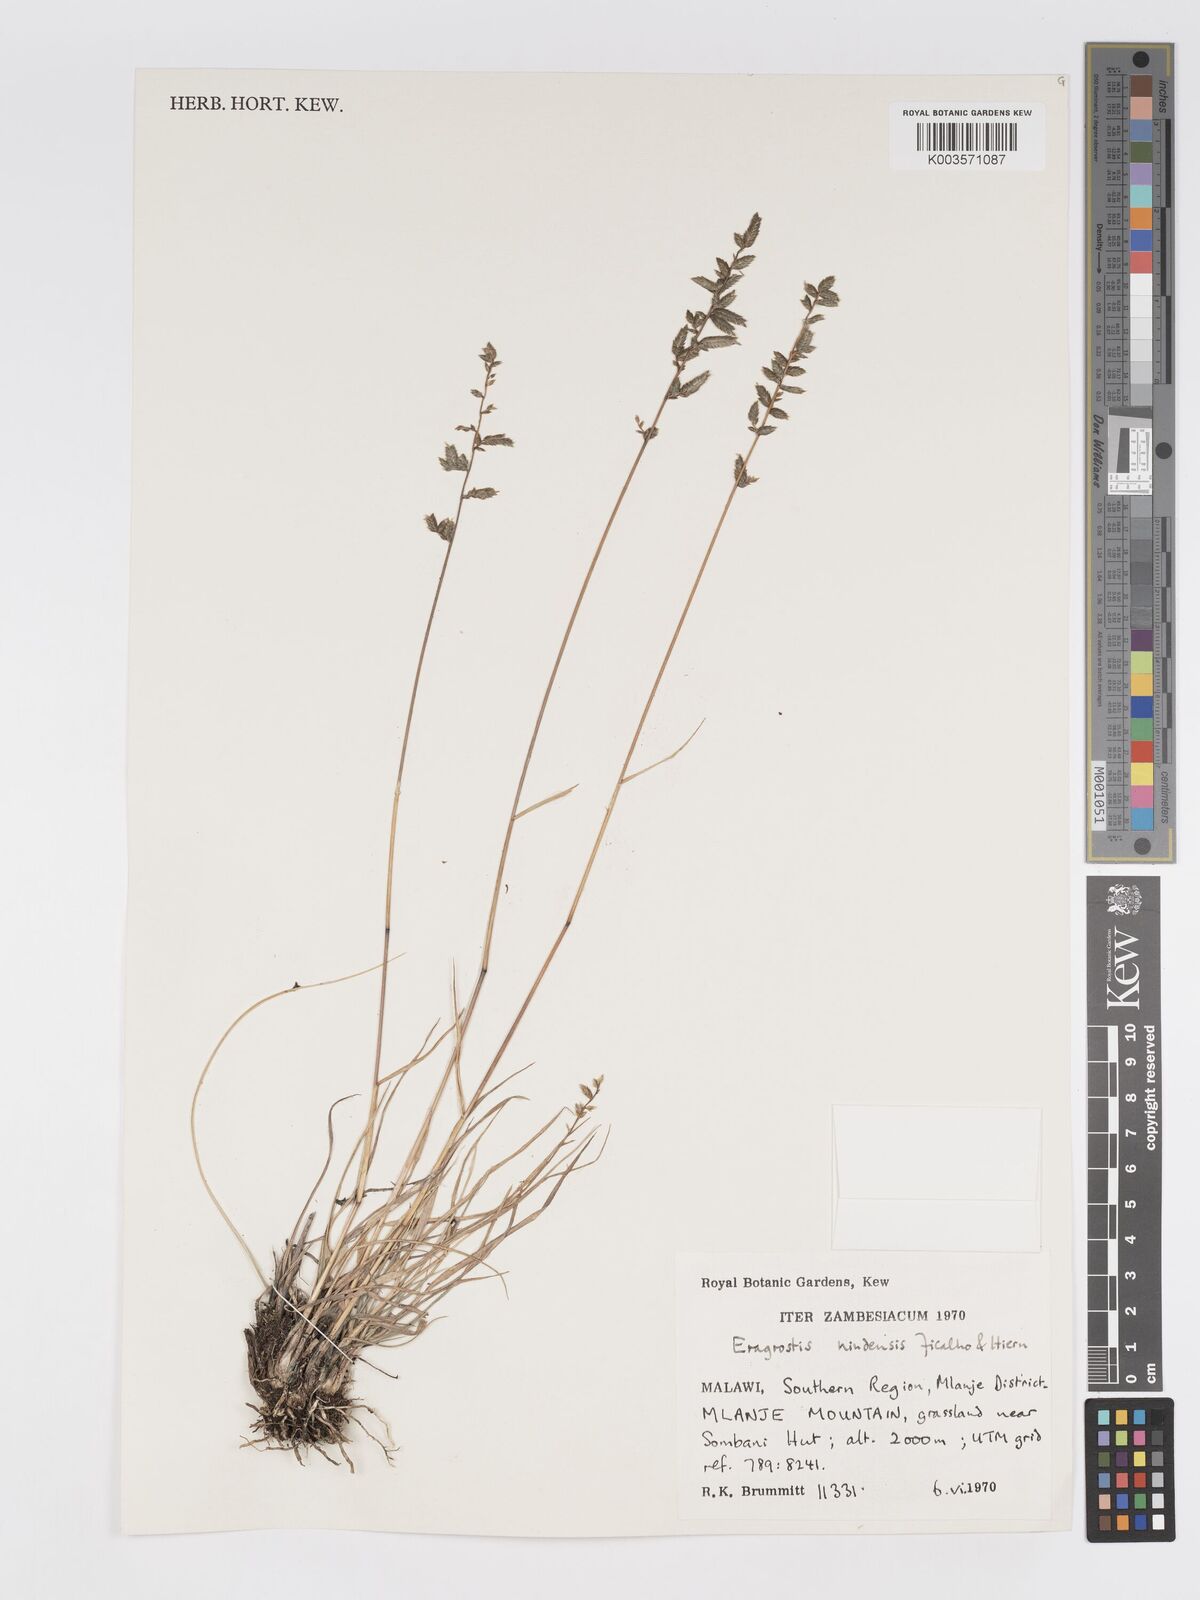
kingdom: Plantae
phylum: Tracheophyta
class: Liliopsida
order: Poales
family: Poaceae
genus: Eragrostis
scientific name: Eragrostis nindensis
